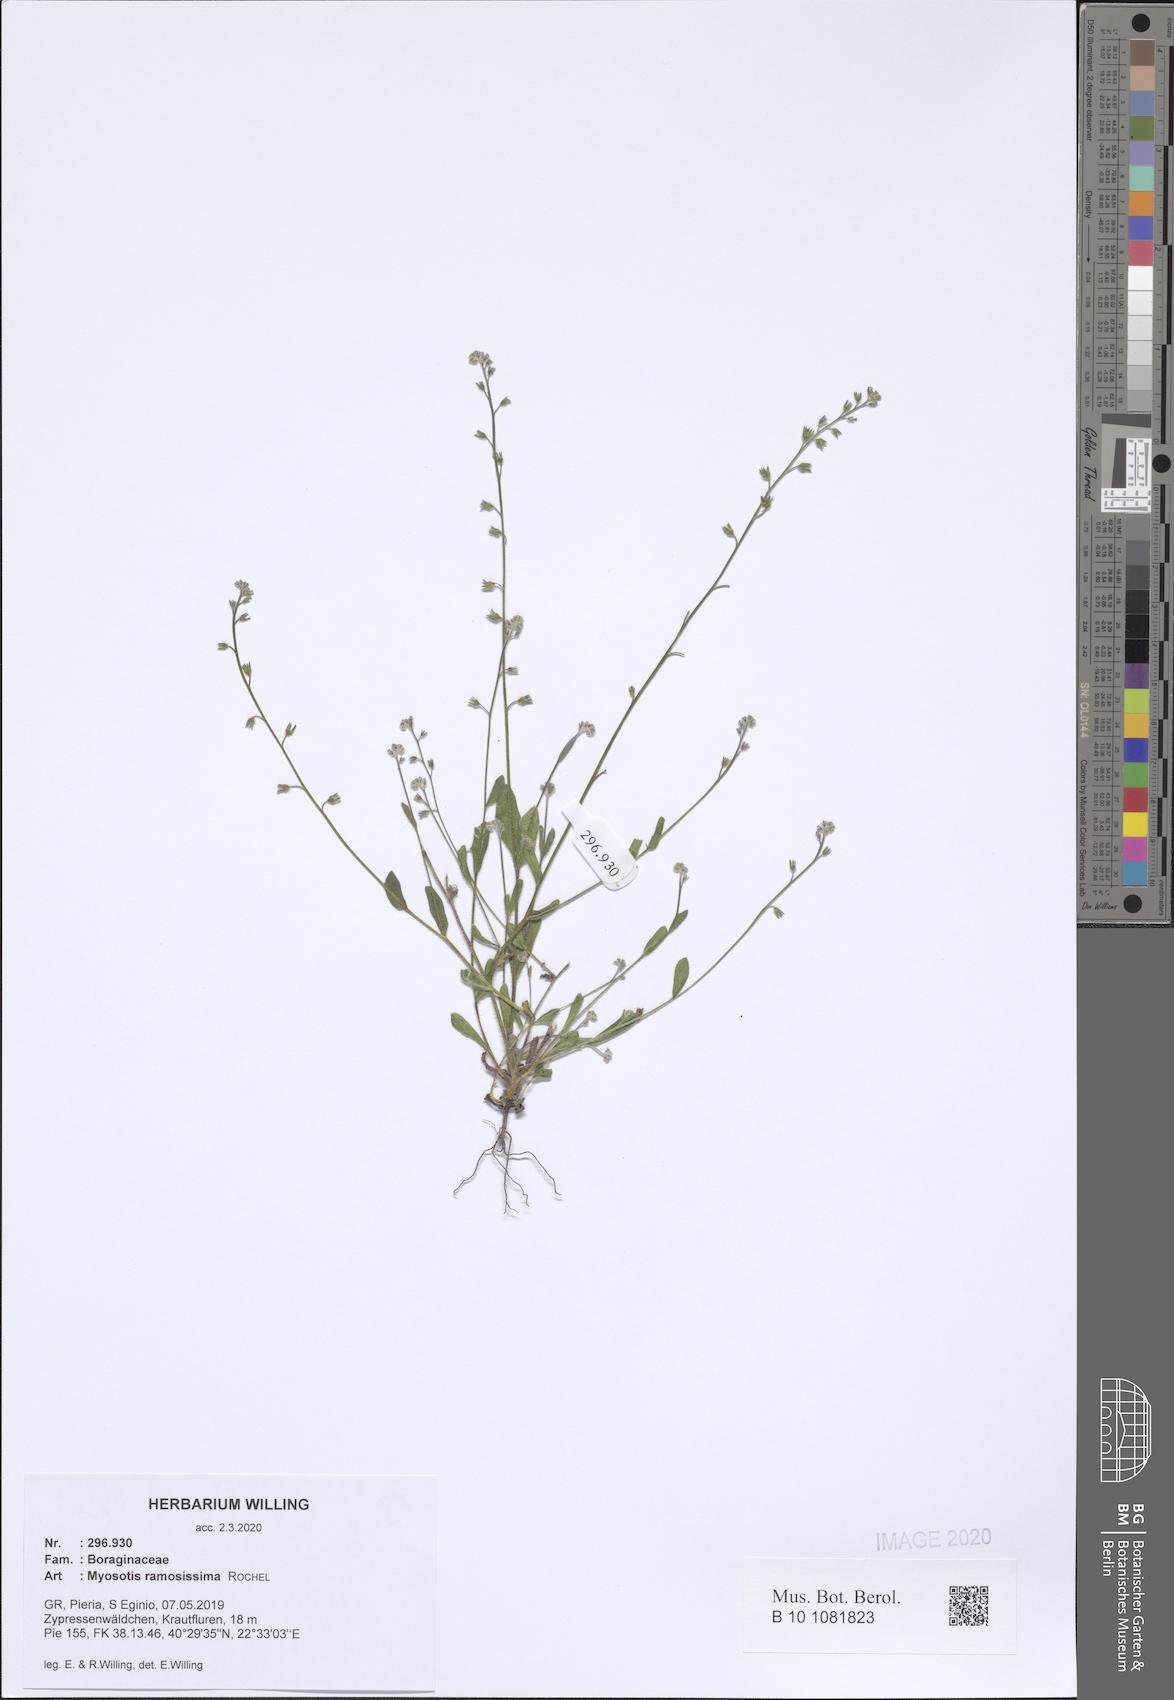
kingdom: Plantae
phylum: Tracheophyta
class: Magnoliopsida
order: Boraginales
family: Boraginaceae
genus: Myosotis
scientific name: Myosotis ramosissima
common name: Early forget-me-not
